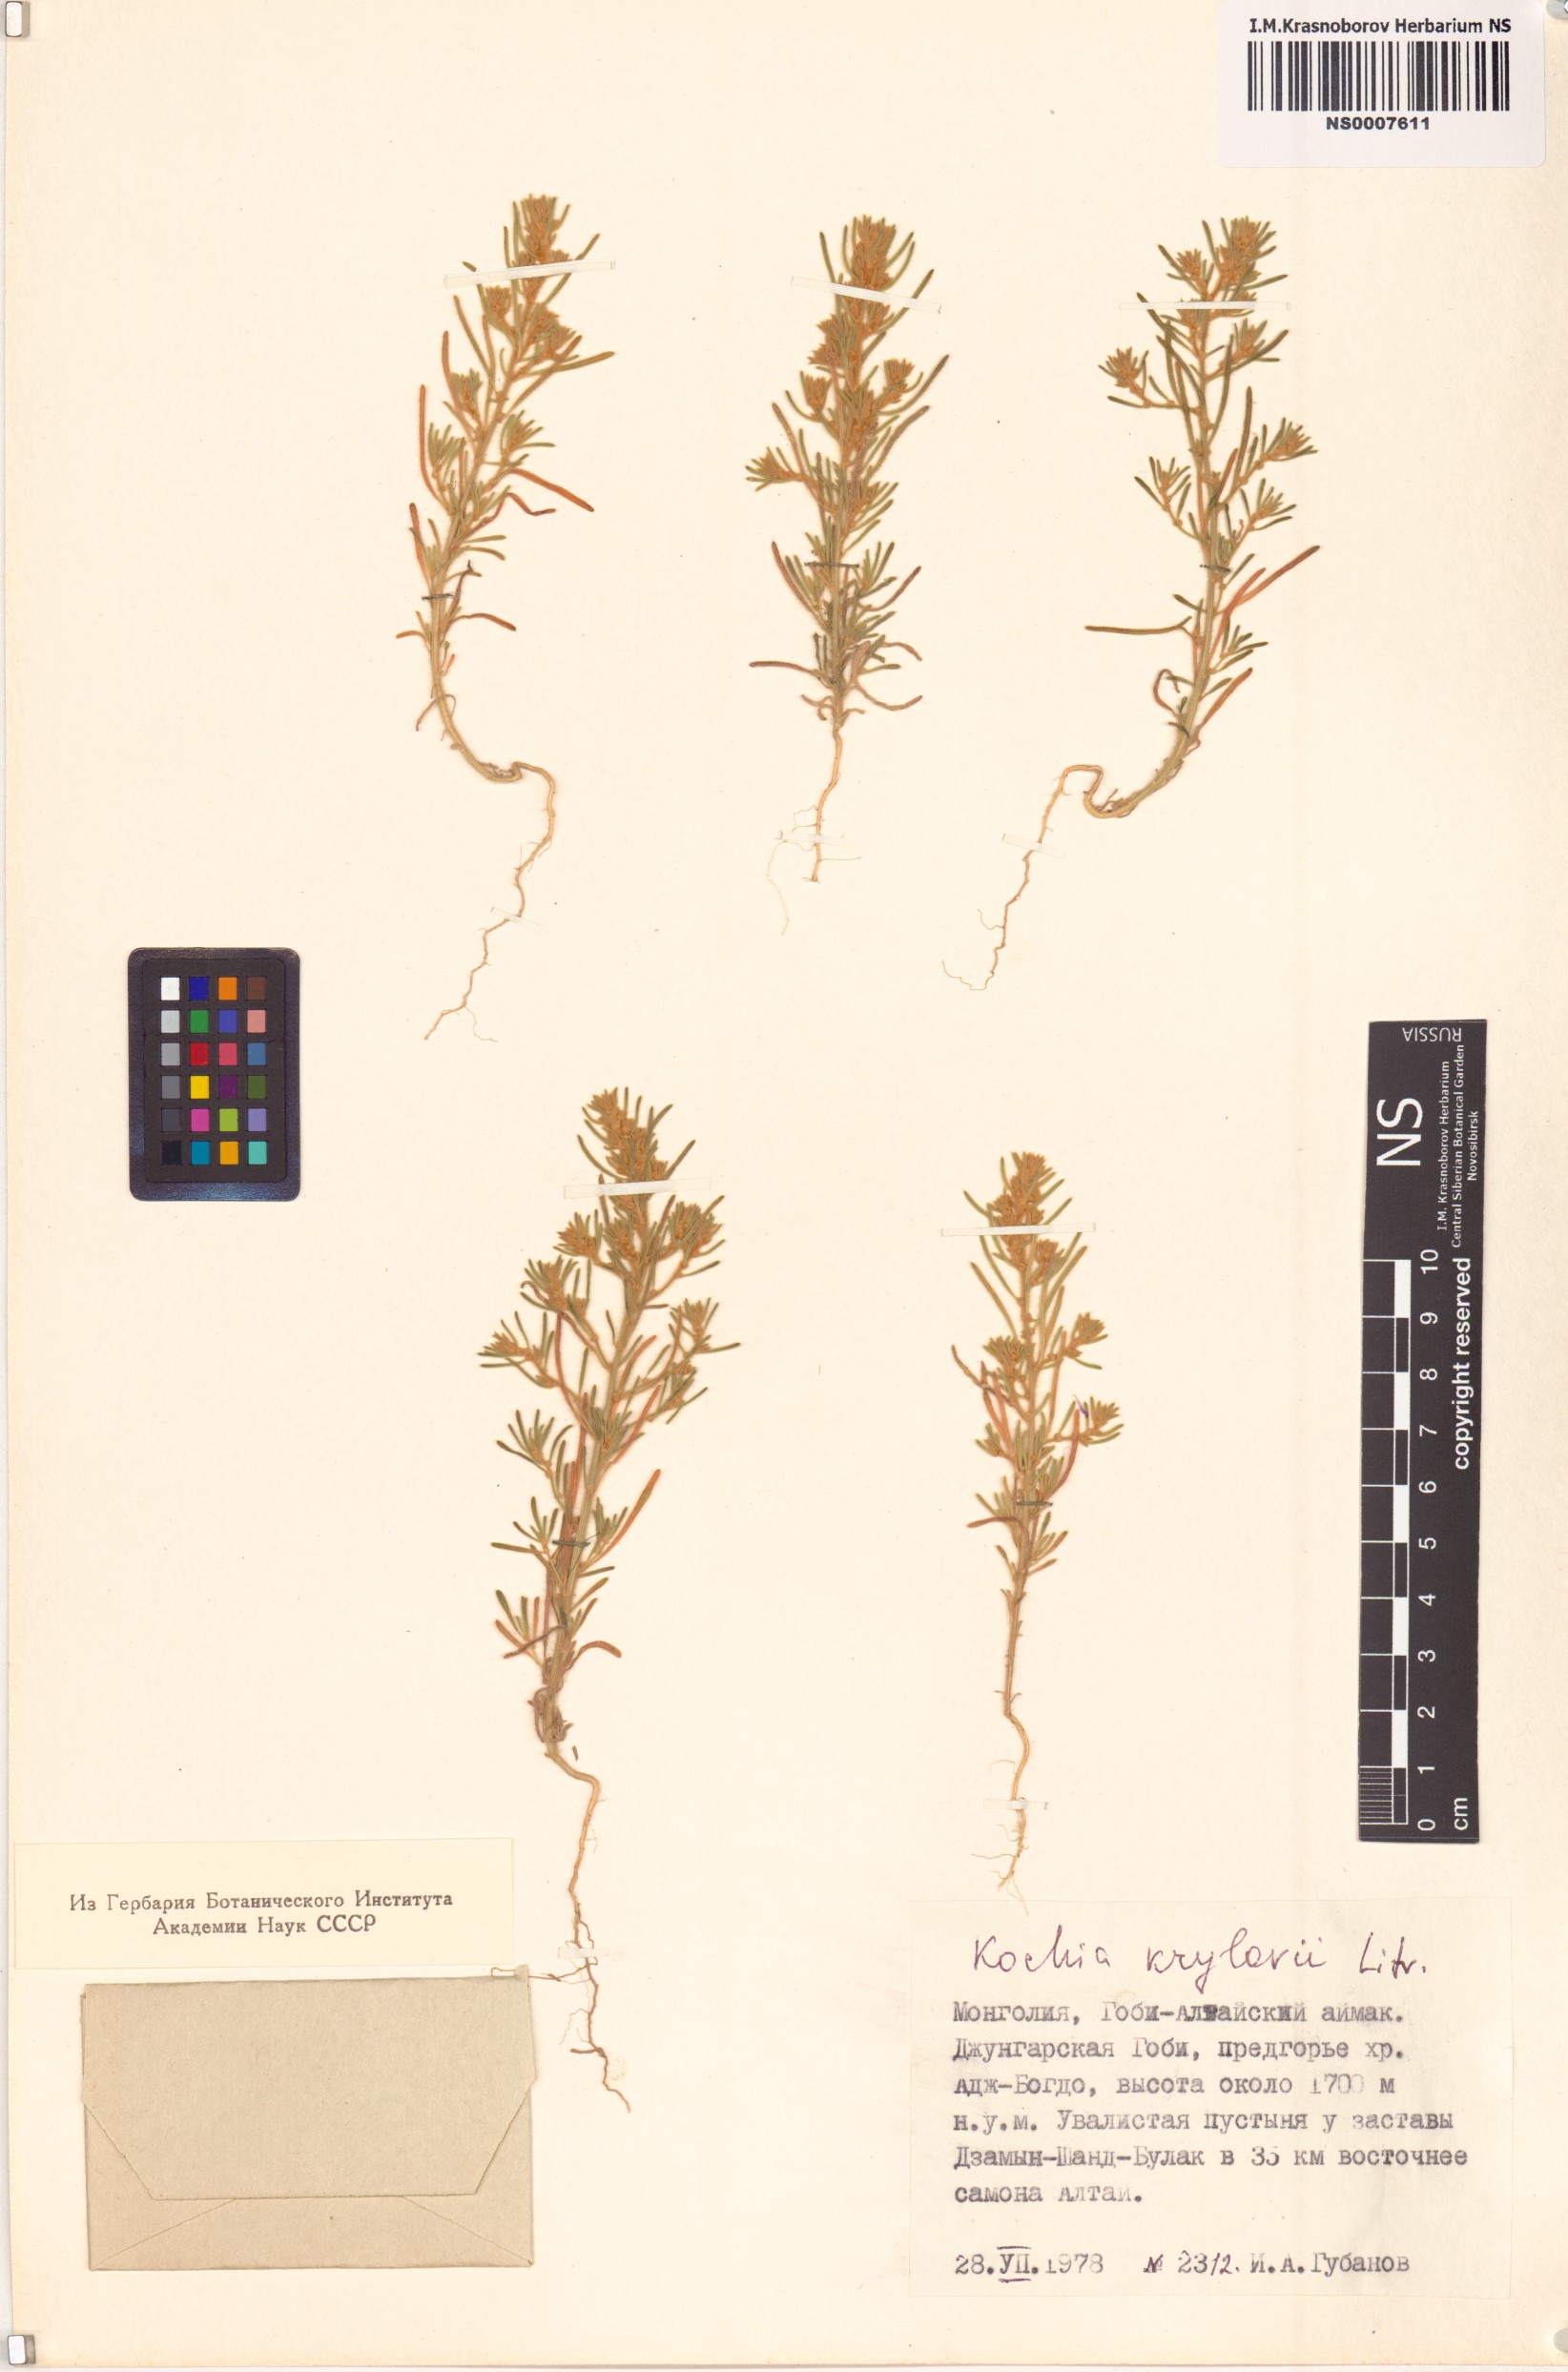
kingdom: Plantae
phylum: Tracheophyta
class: Magnoliopsida
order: Caryophyllales
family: Amaranthaceae
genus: Grubovia
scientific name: Grubovia krylowii
